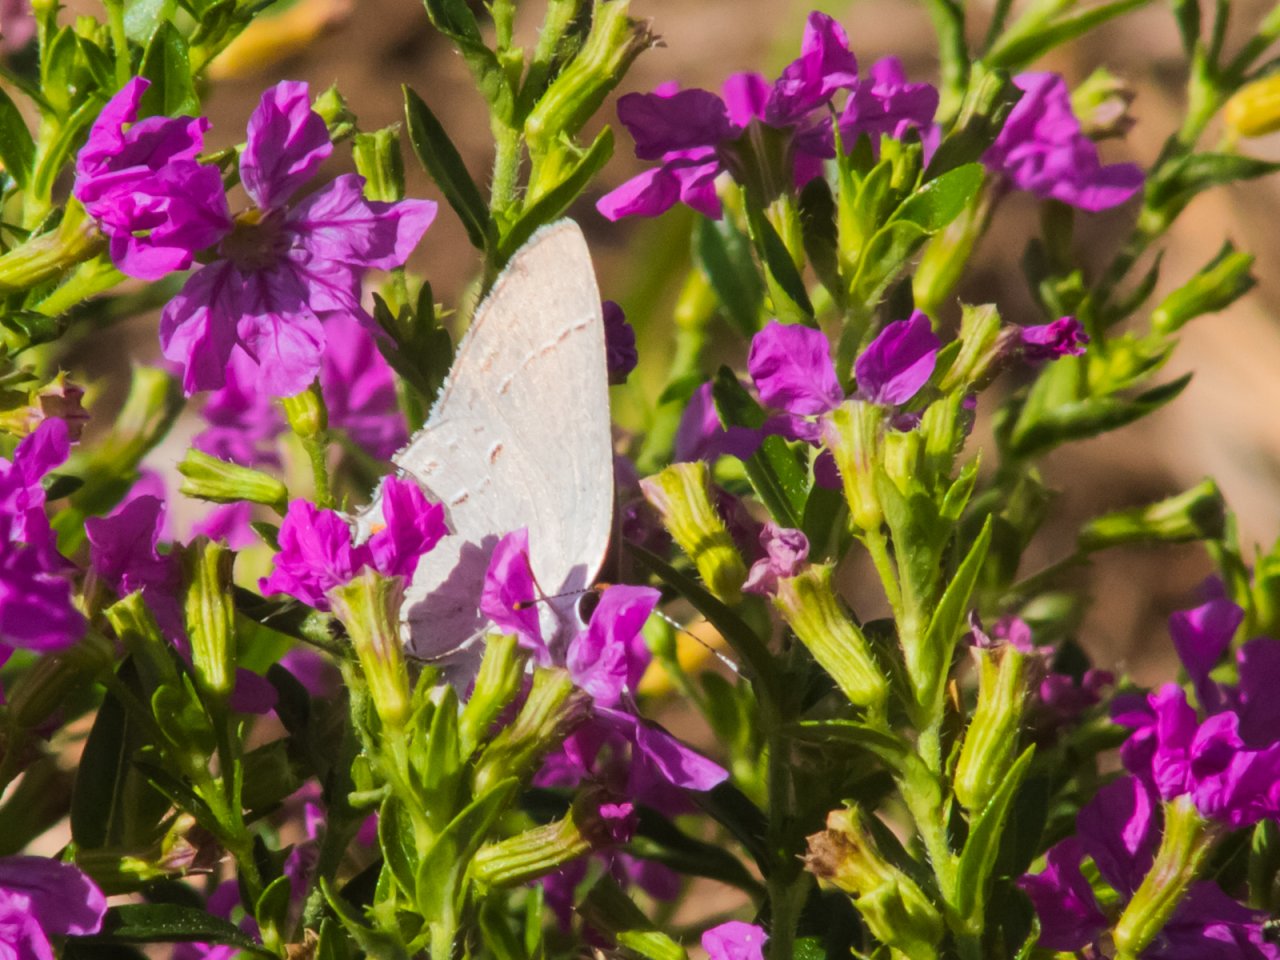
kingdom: Animalia
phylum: Arthropoda
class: Insecta
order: Lepidoptera
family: Lycaenidae
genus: Strymon
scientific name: Strymon melinus
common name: Gray Hairstreak
